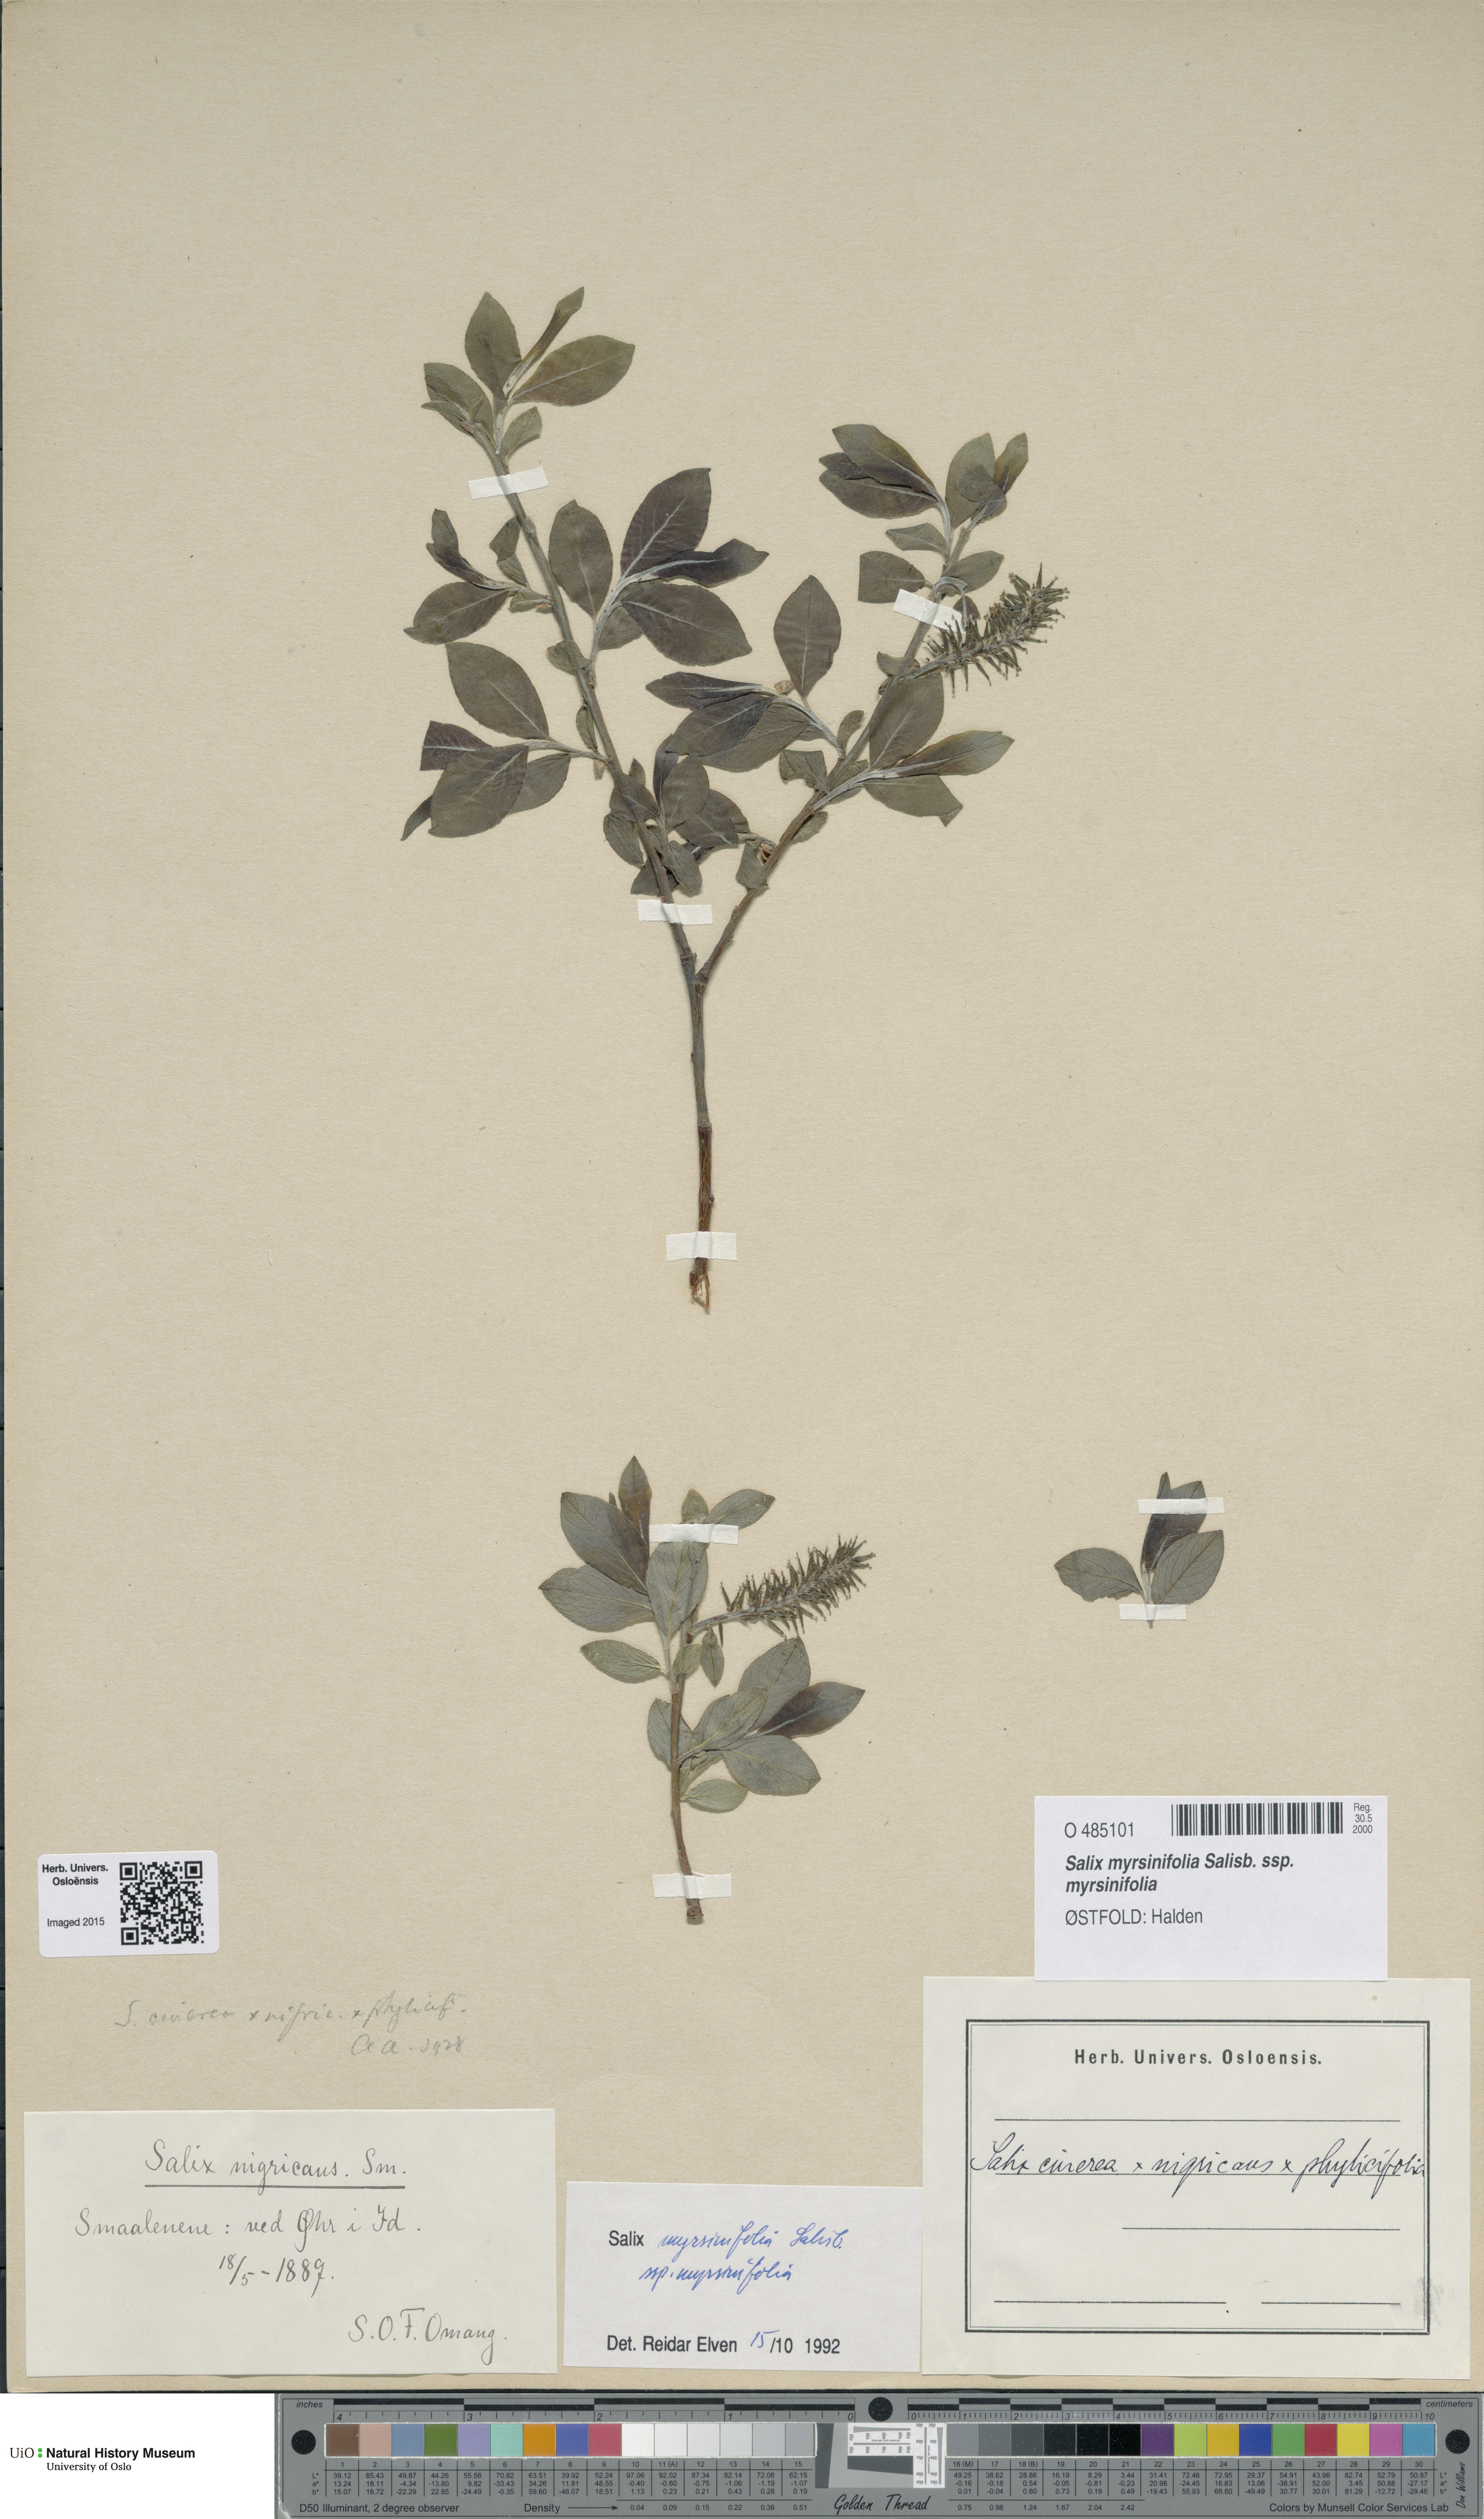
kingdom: Plantae
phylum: Tracheophyta
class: Magnoliopsida
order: Malpighiales
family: Salicaceae
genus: Salix
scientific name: Salix myrsinifolia
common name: Dark-leaved willow
